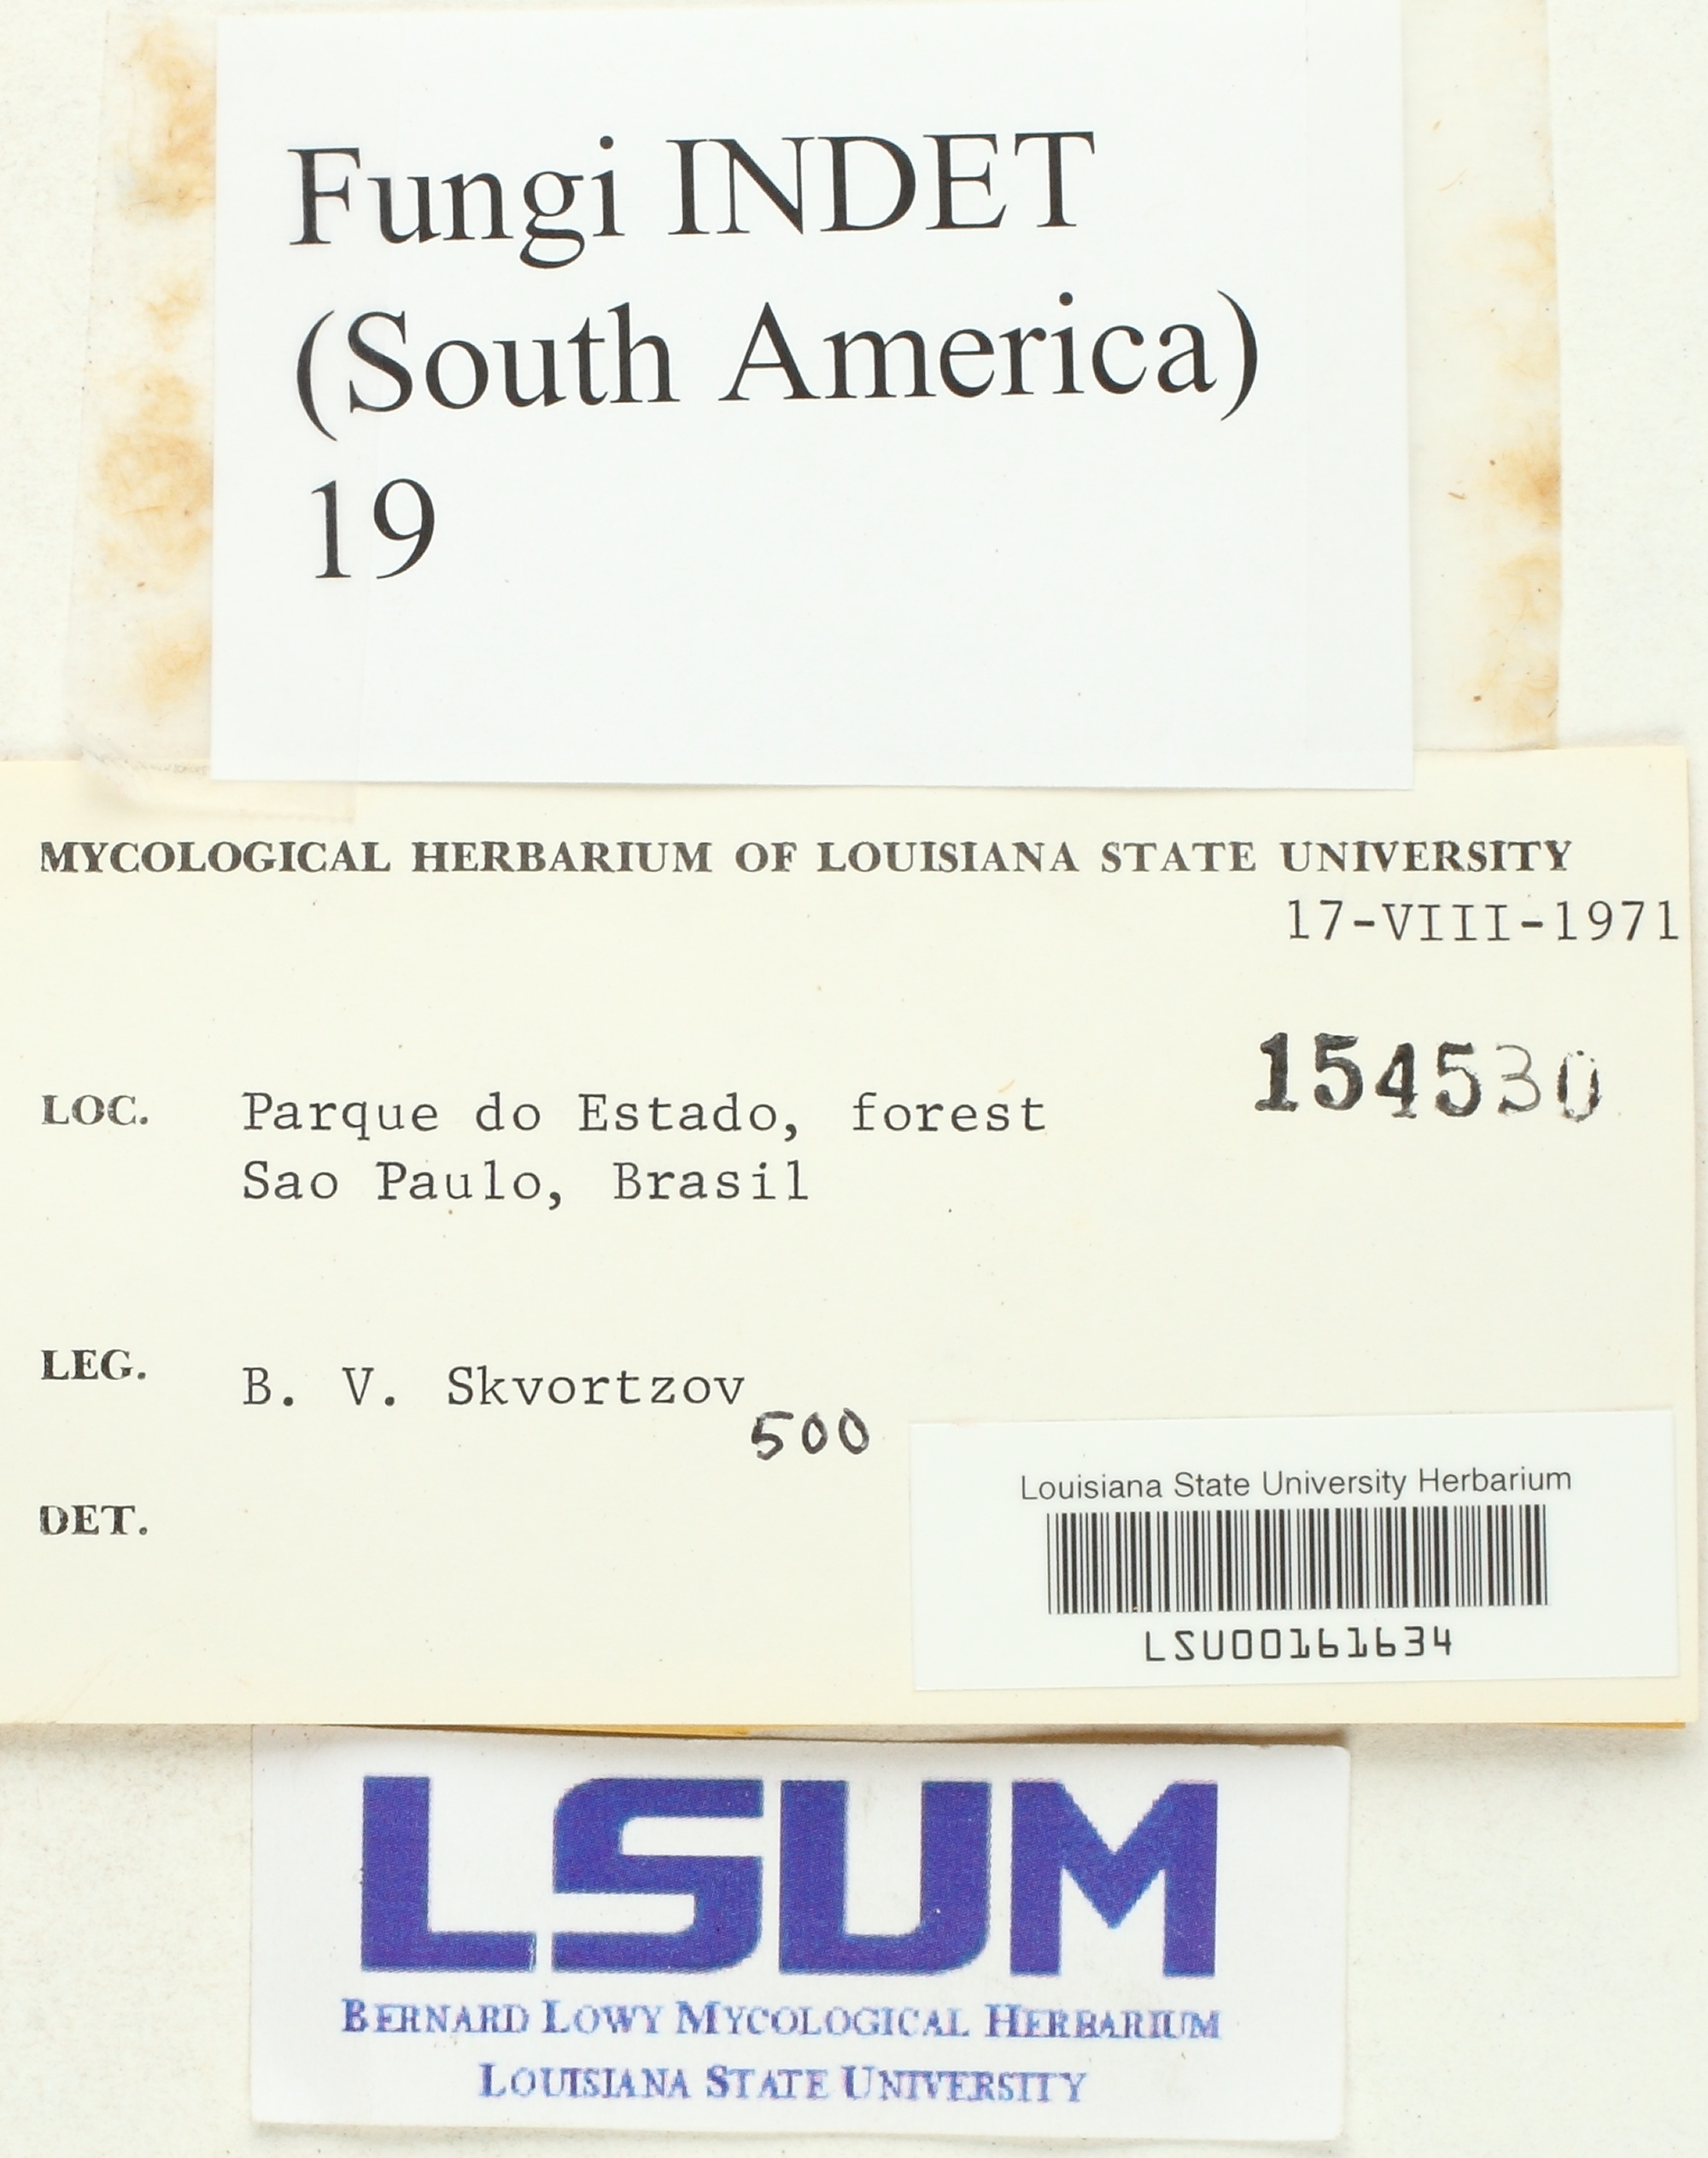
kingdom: Fungi
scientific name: Fungi
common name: Fungi
